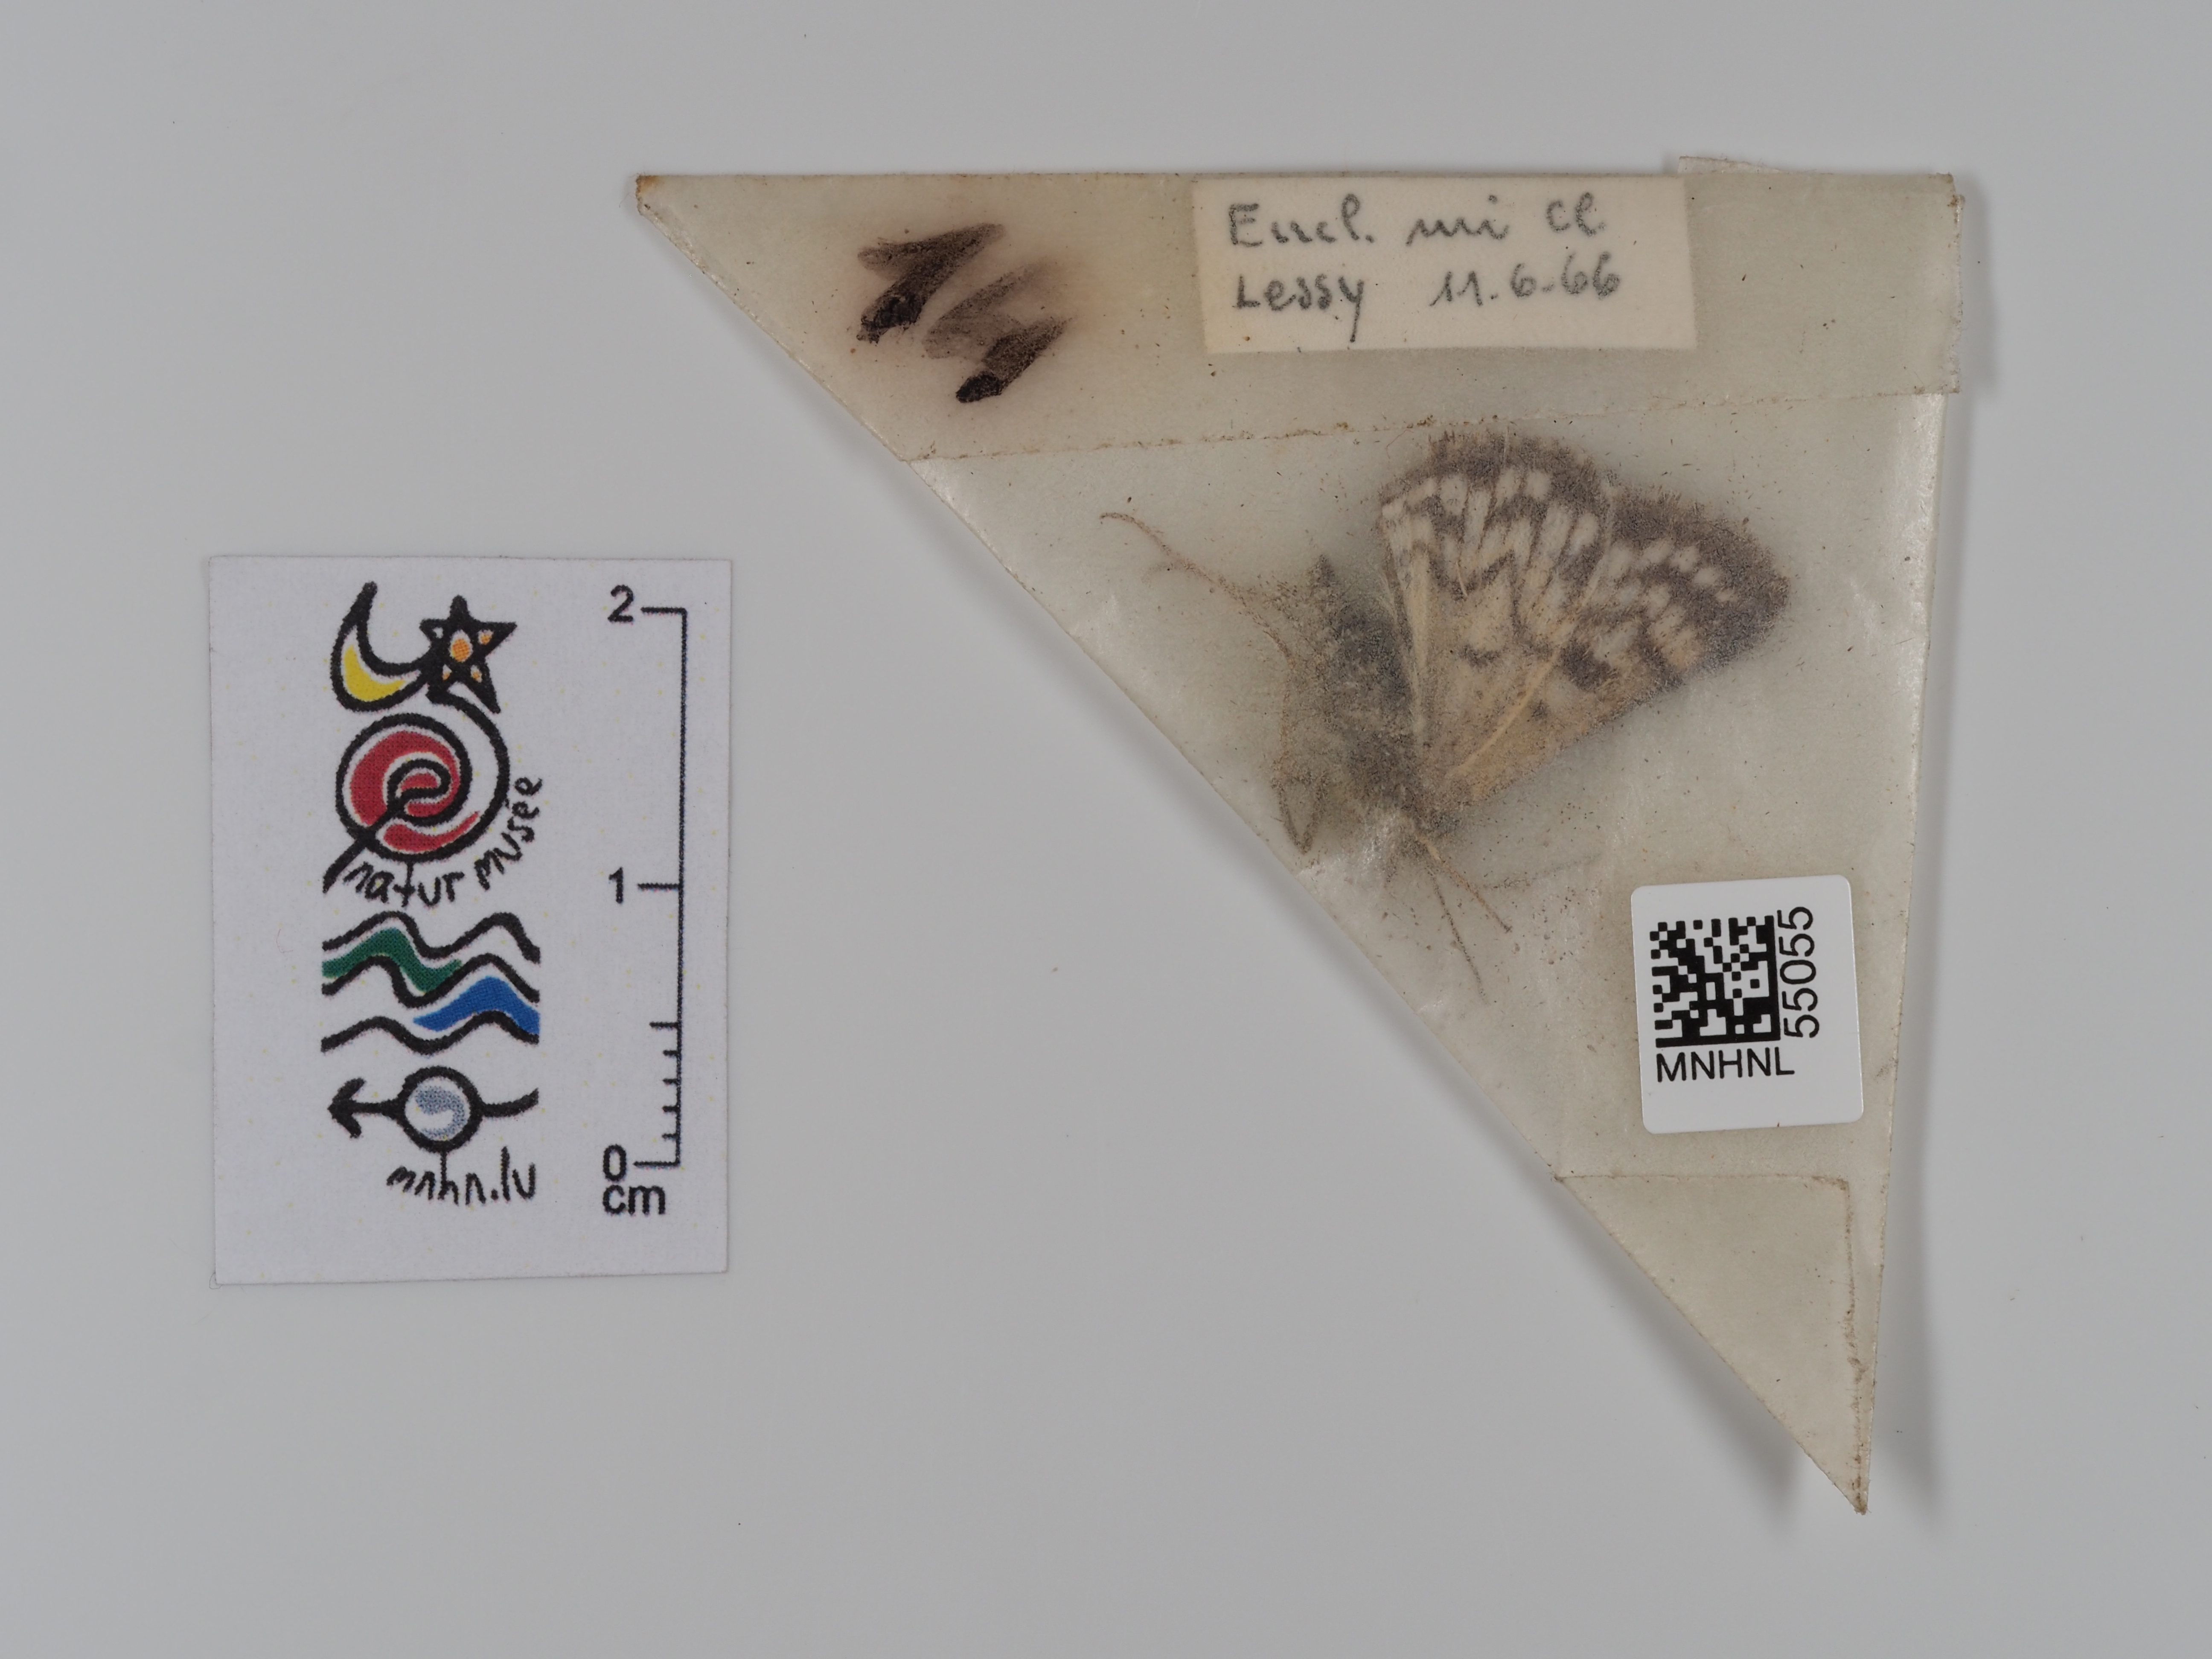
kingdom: Animalia
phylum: Arthropoda
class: Insecta
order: Lepidoptera
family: Erebidae
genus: Euclidia
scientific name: Euclidia mi
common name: Mother shipton
